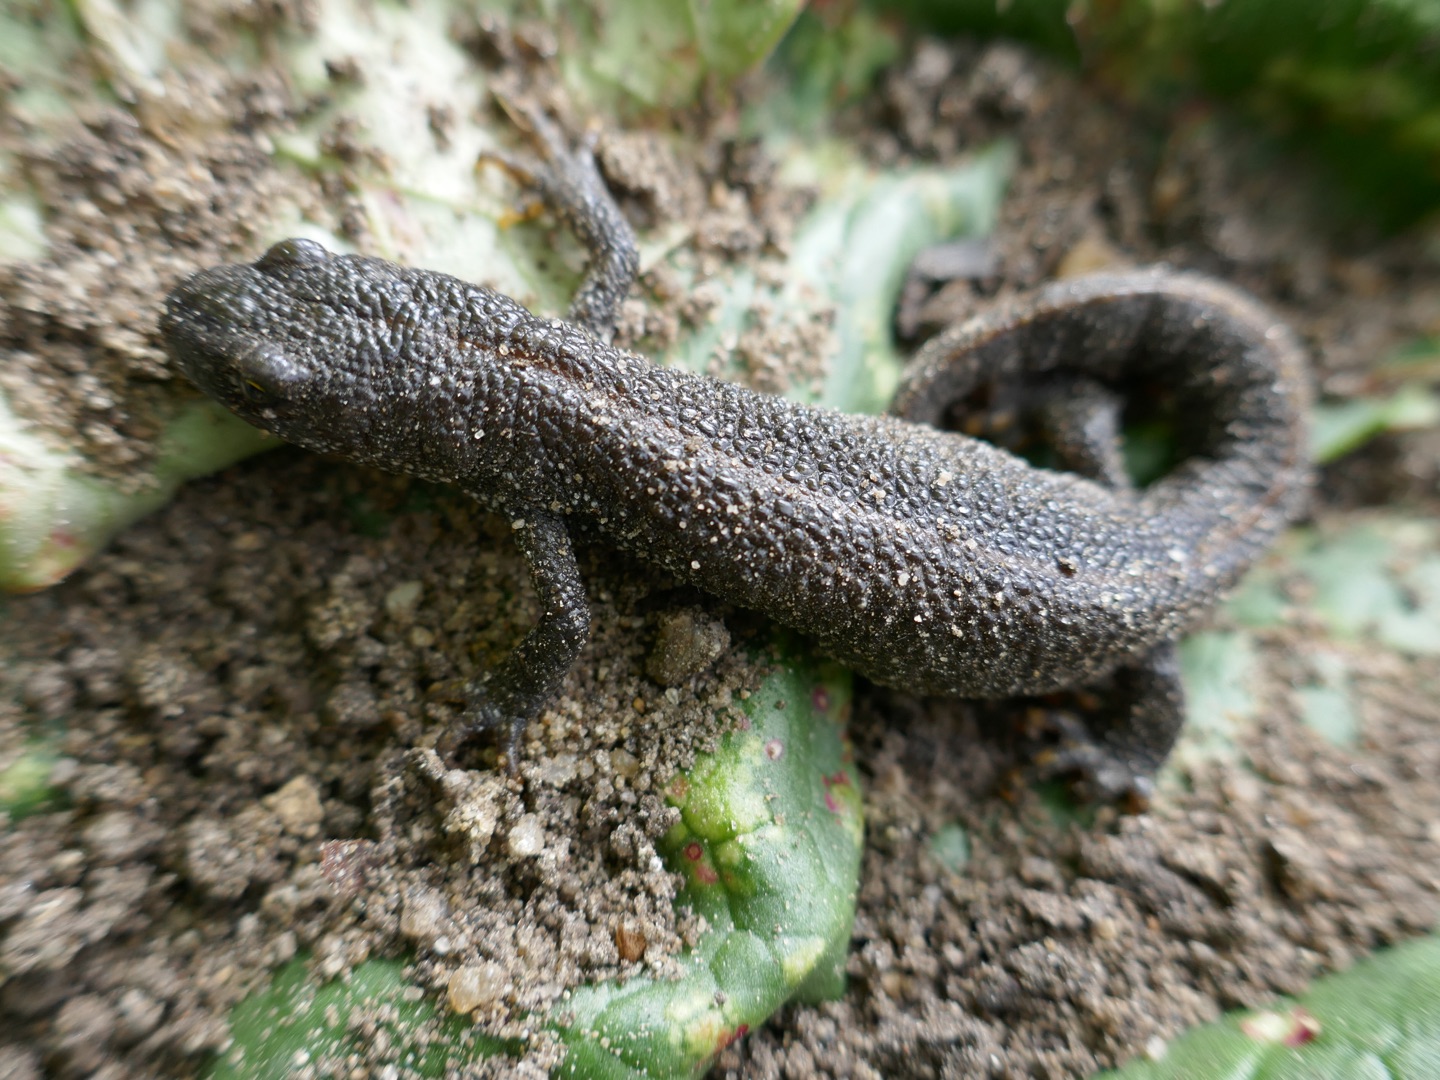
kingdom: Animalia
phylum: Chordata
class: Amphibia
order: Caudata
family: Salamandridae
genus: Triturus
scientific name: Triturus cristatus
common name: Stor vandsalamander
